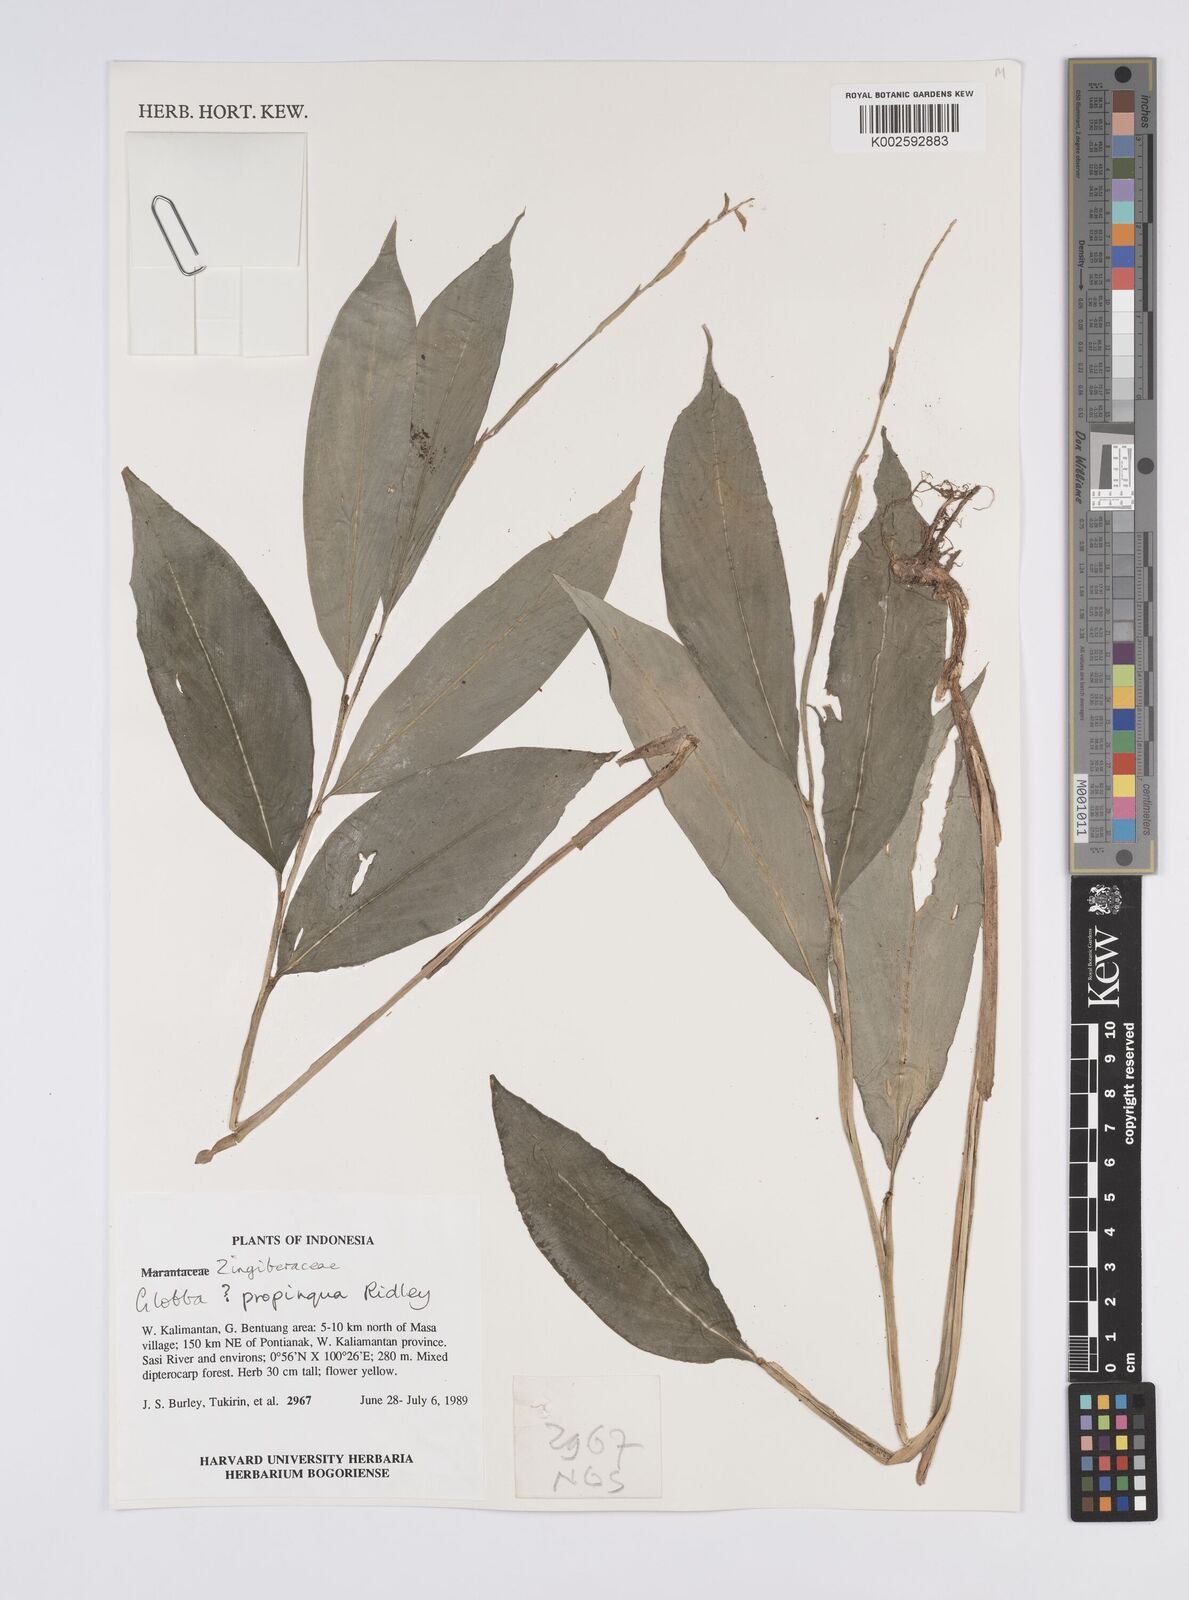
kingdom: Plantae
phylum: Tracheophyta
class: Liliopsida
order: Zingiberales
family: Zingiberaceae
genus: Globba
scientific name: Globba propinqua
